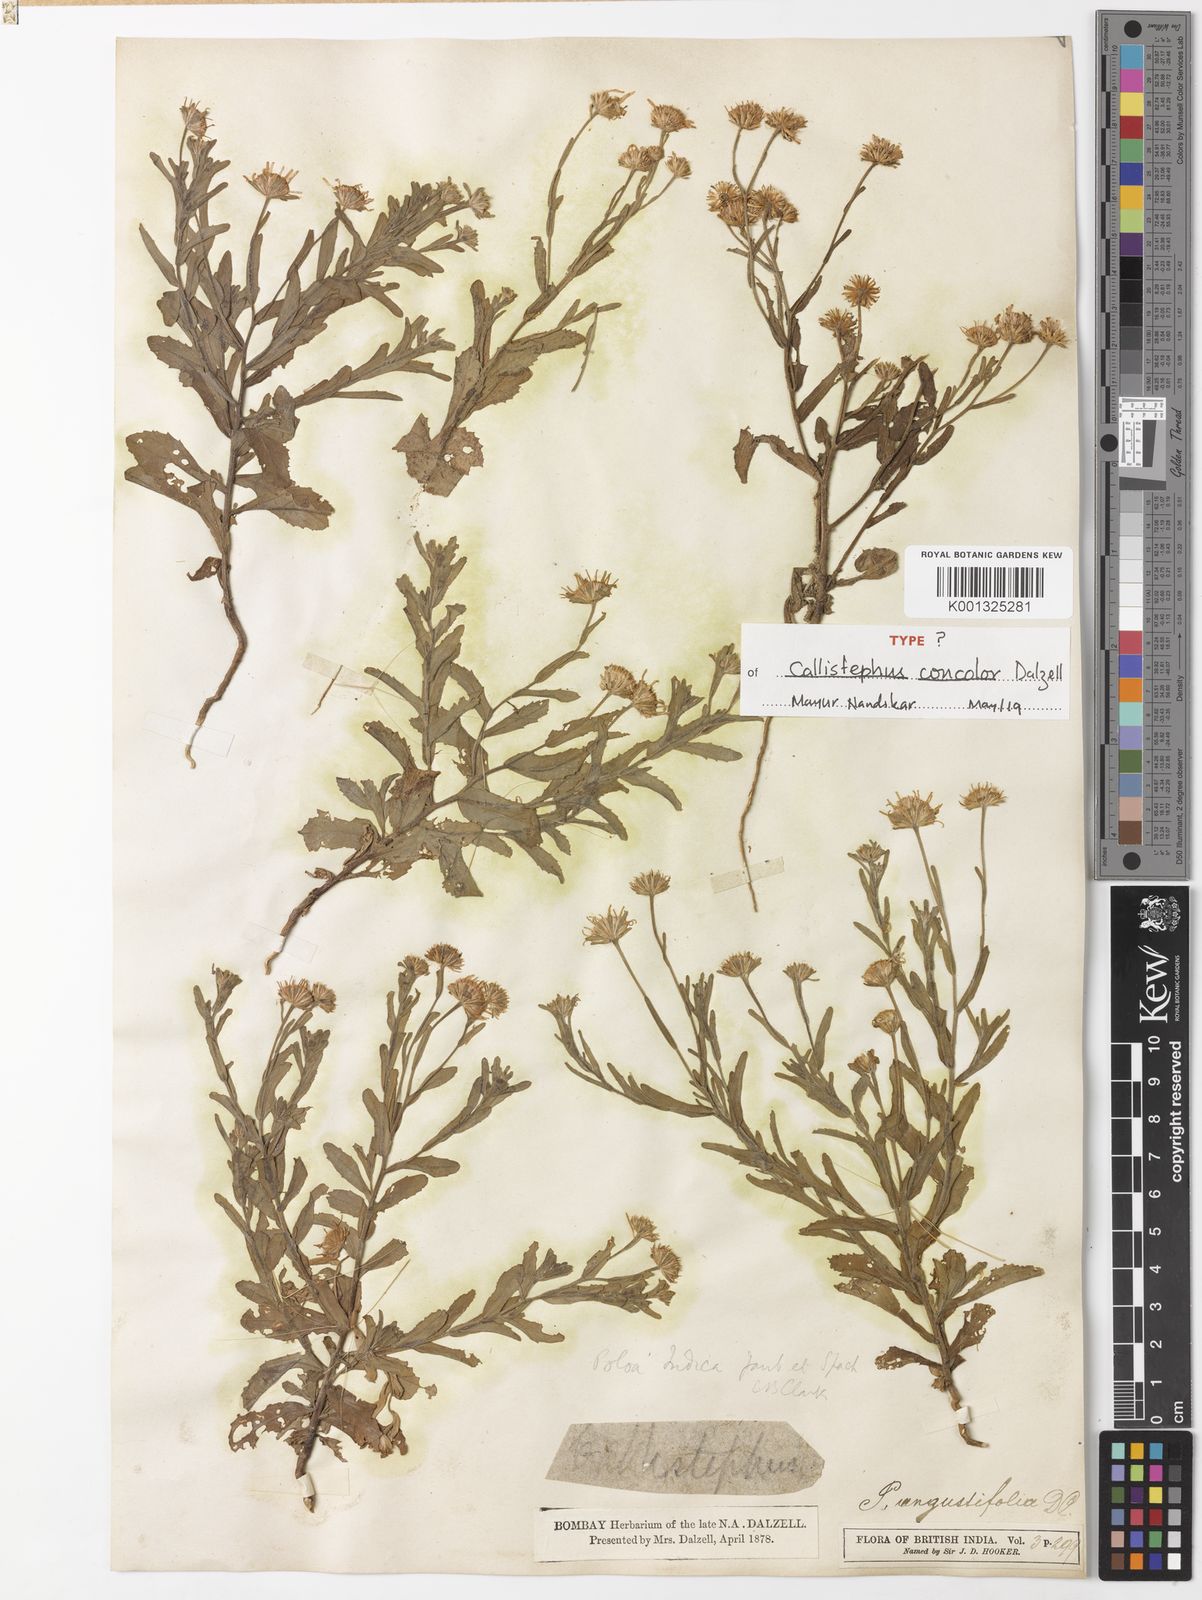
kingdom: Plantae
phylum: Tracheophyta
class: Magnoliopsida
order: Asterales
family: Asteraceae
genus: Pulicaria
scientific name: Pulicaria angustifolia
